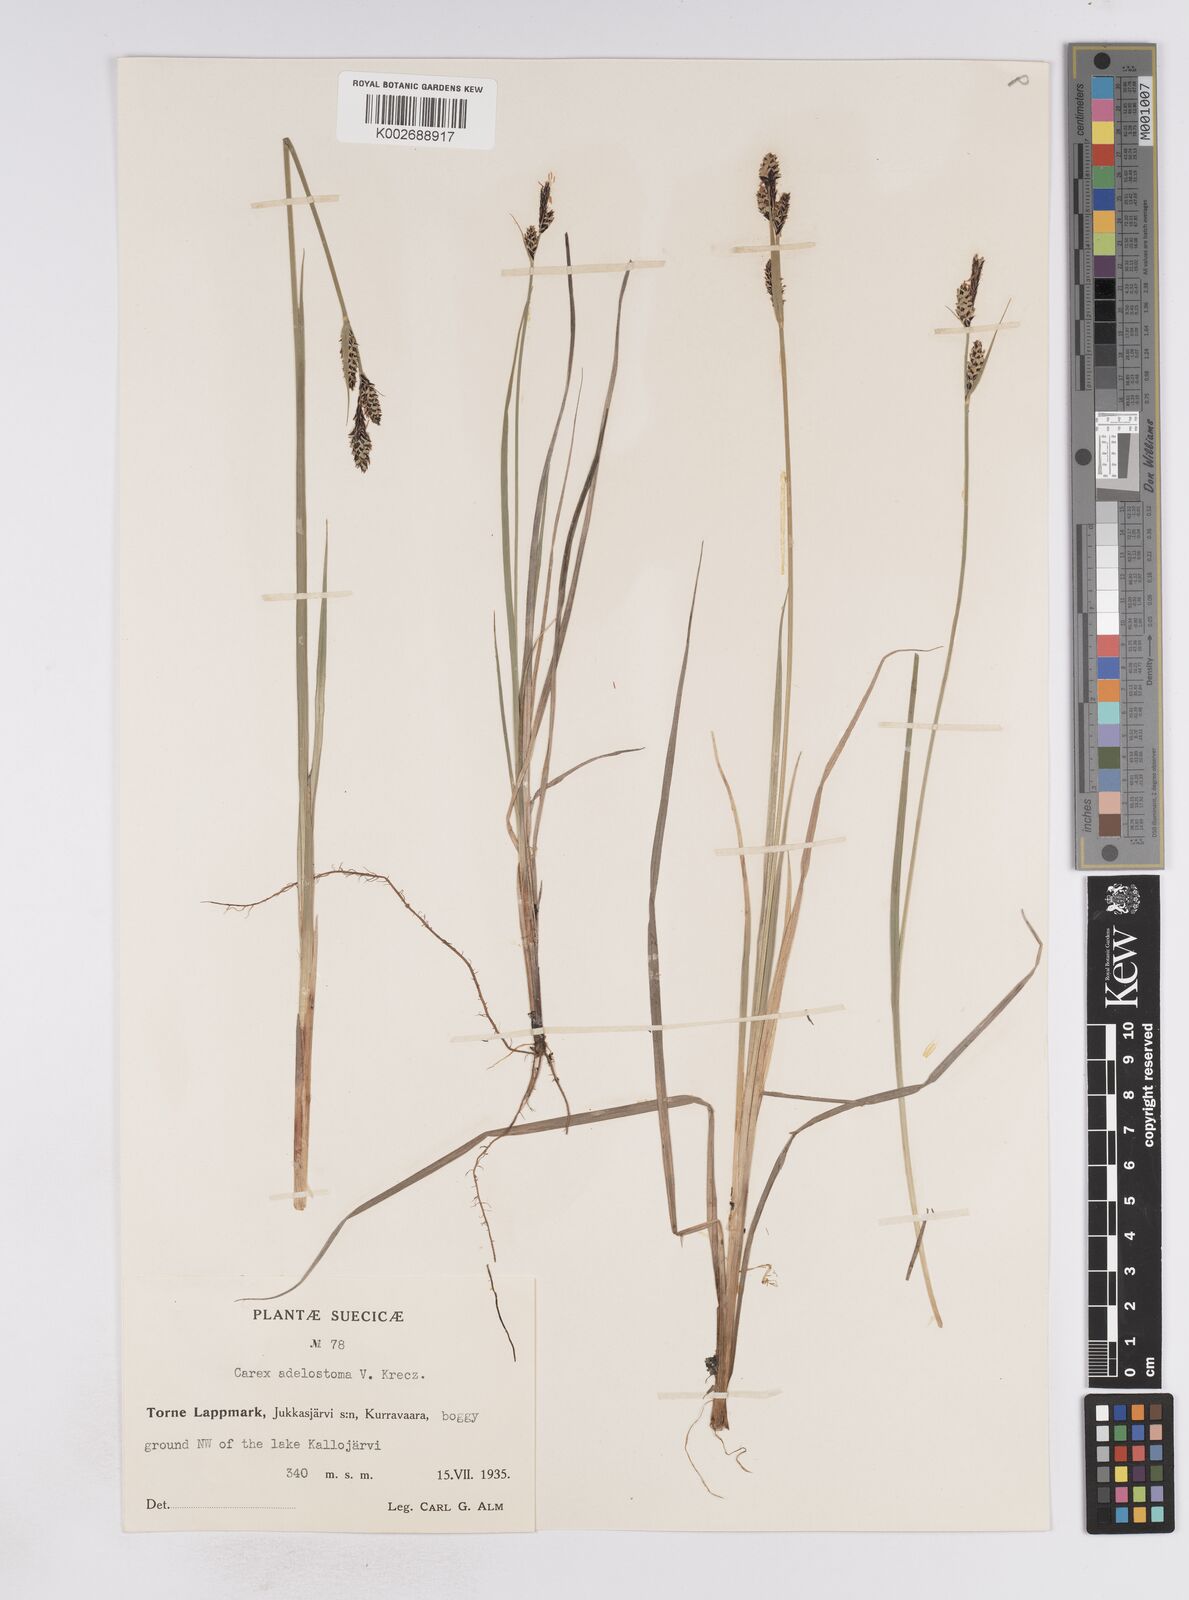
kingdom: Plantae
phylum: Tracheophyta
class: Liliopsida
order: Poales
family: Cyperaceae
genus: Carex
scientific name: Carex adelostoma
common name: Circumpolar sedge
